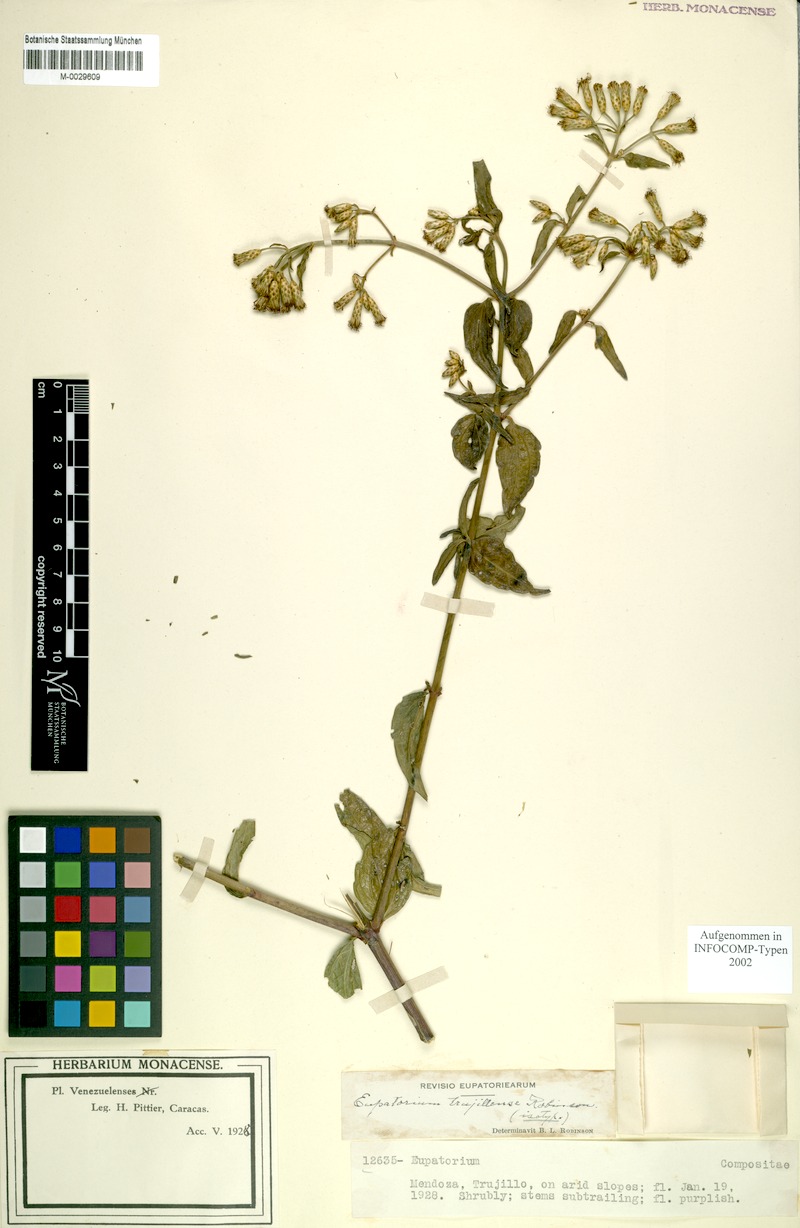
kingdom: Plantae
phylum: Tracheophyta
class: Magnoliopsida
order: Asterales
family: Asteraceae
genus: Chromolaena
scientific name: Chromolaena trujillensis
